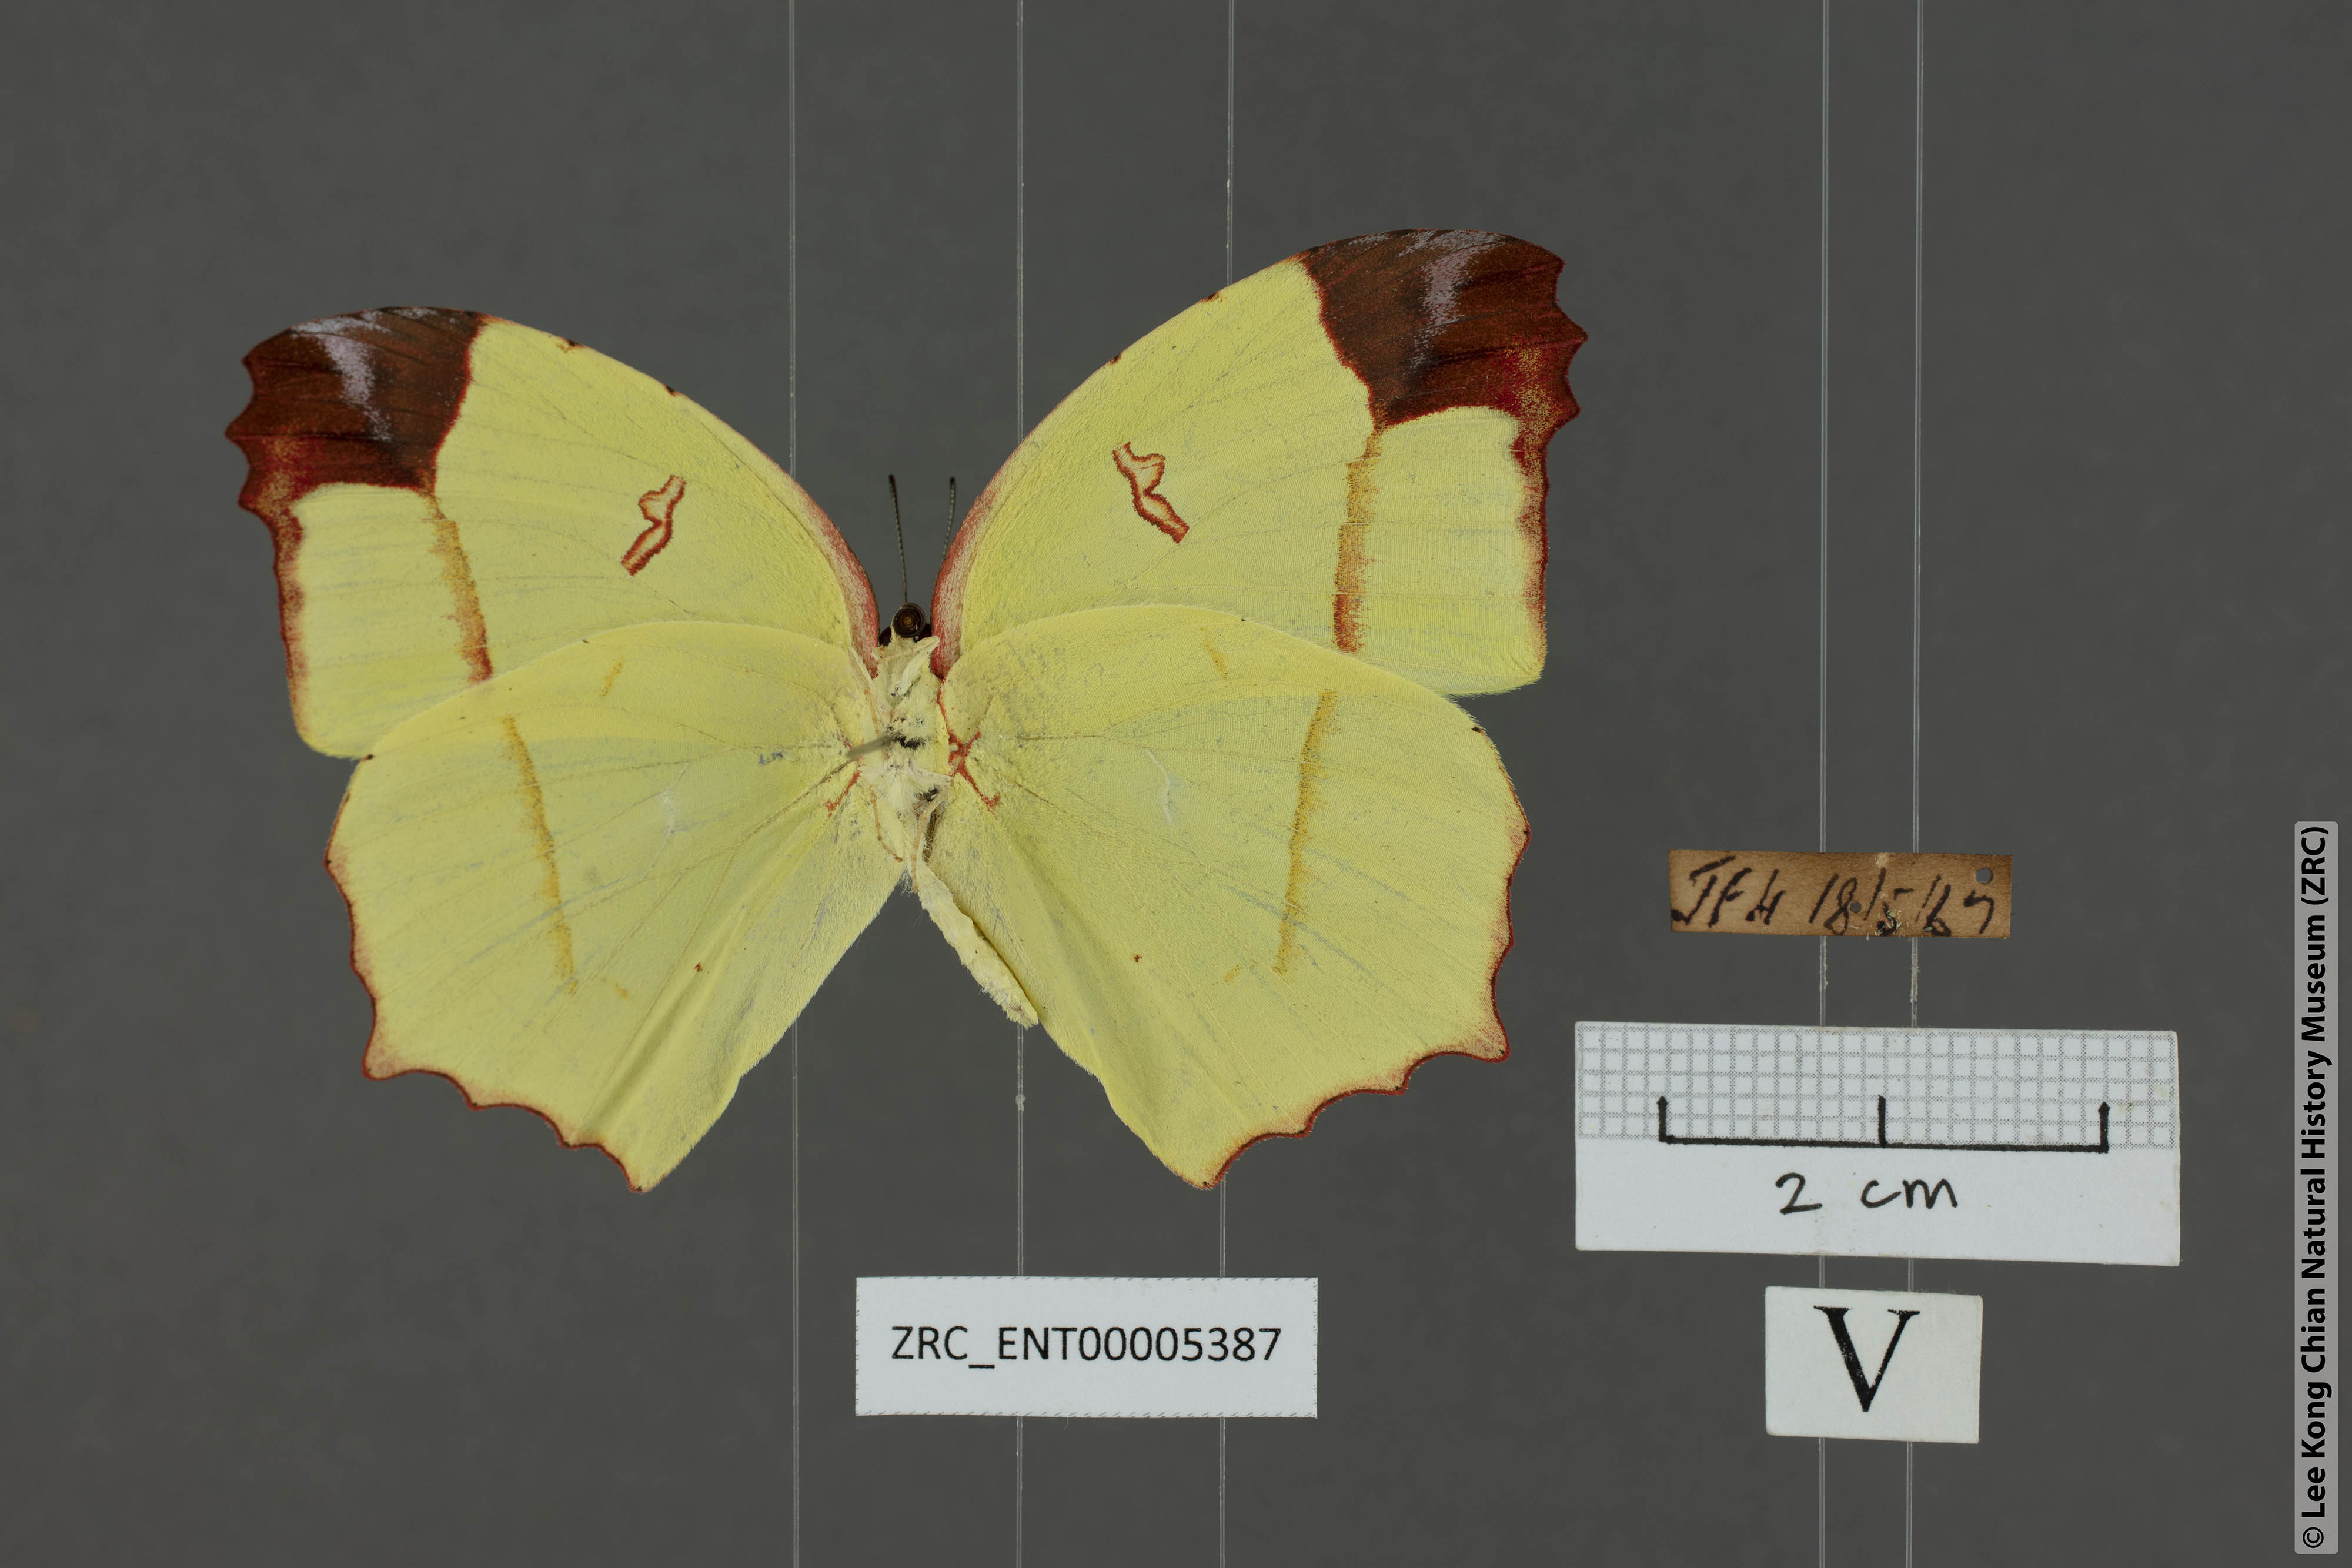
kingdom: Animalia
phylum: Arthropoda
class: Insecta
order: Lepidoptera
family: Pieridae
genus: Dercas
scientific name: Dercas verhuelli
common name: Tailed sulphur
